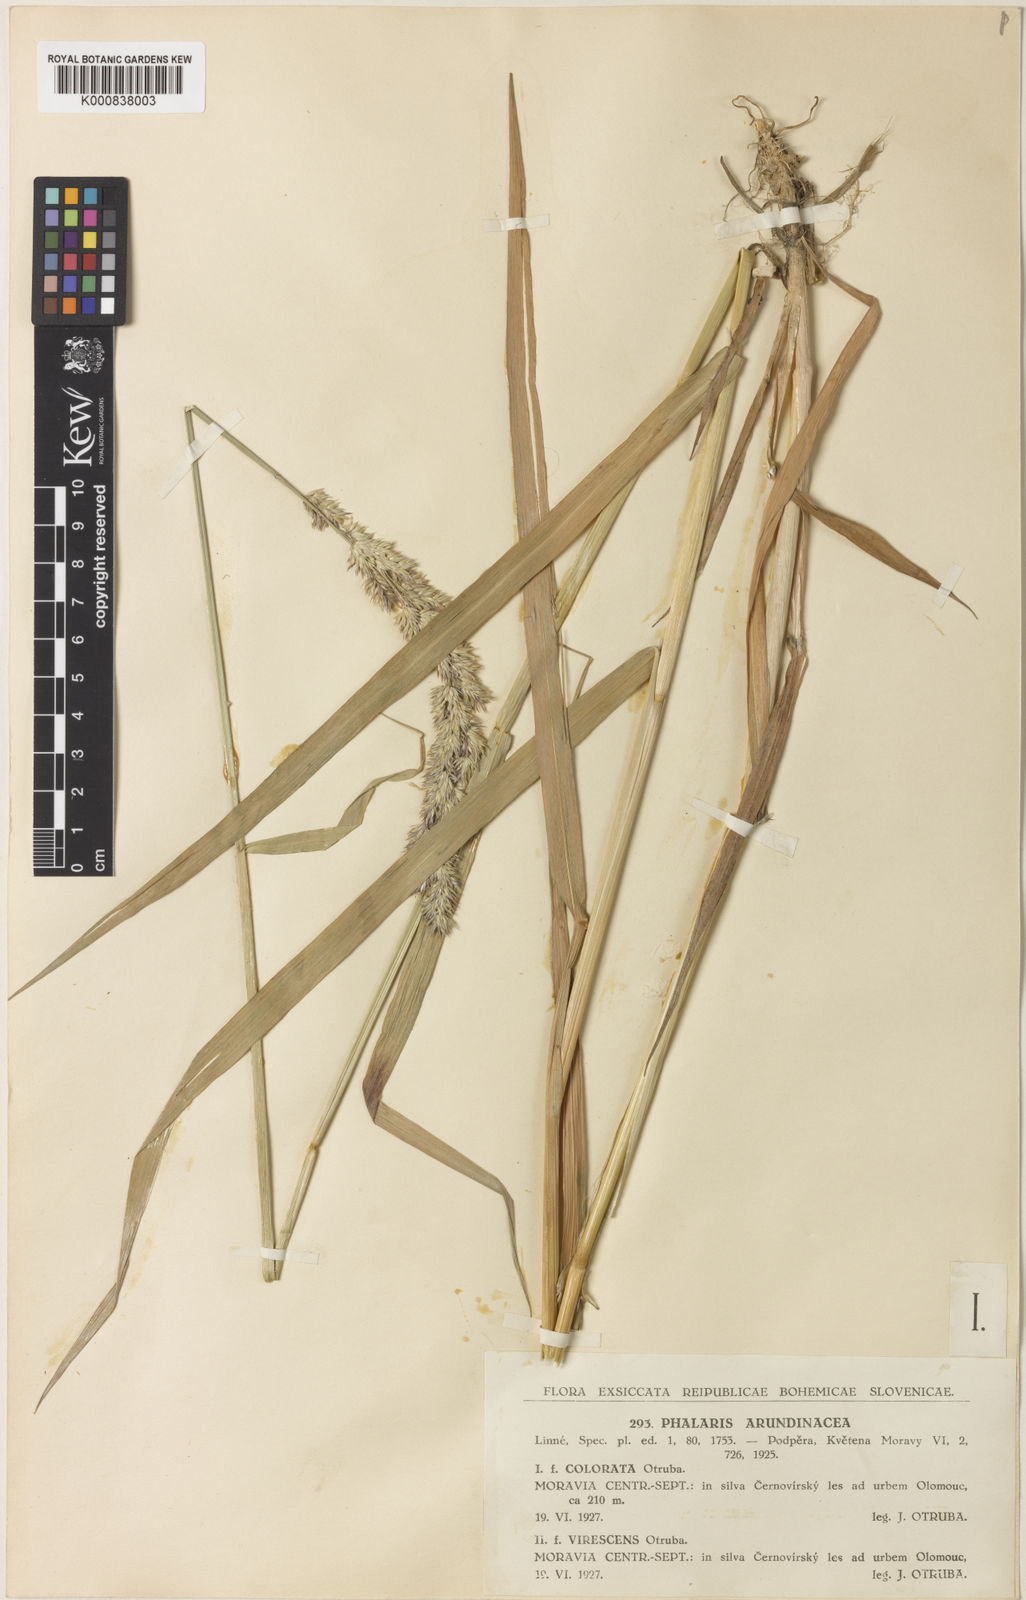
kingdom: Plantae
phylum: Tracheophyta
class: Liliopsida
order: Poales
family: Poaceae
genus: Phalaris
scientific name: Phalaris arundinacea
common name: Reed canary-grass
